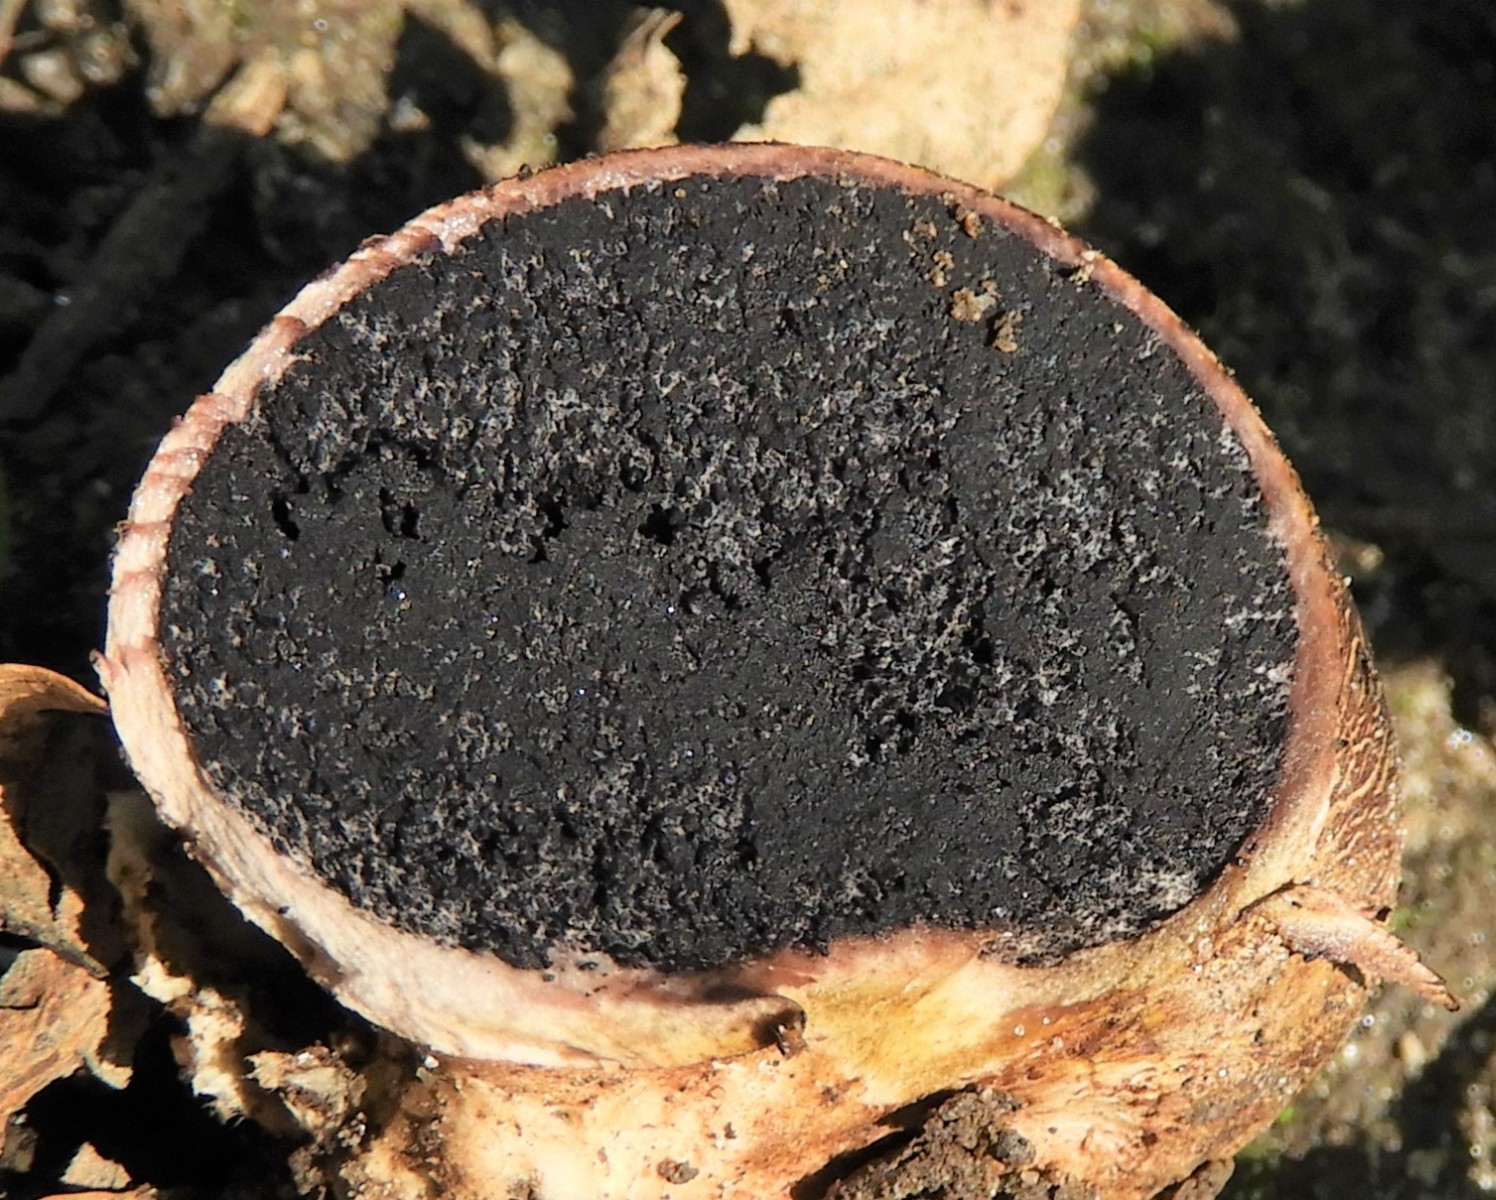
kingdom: Fungi
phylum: Basidiomycota
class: Agaricomycetes
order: Boletales
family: Sclerodermataceae
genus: Scleroderma
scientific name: Scleroderma
